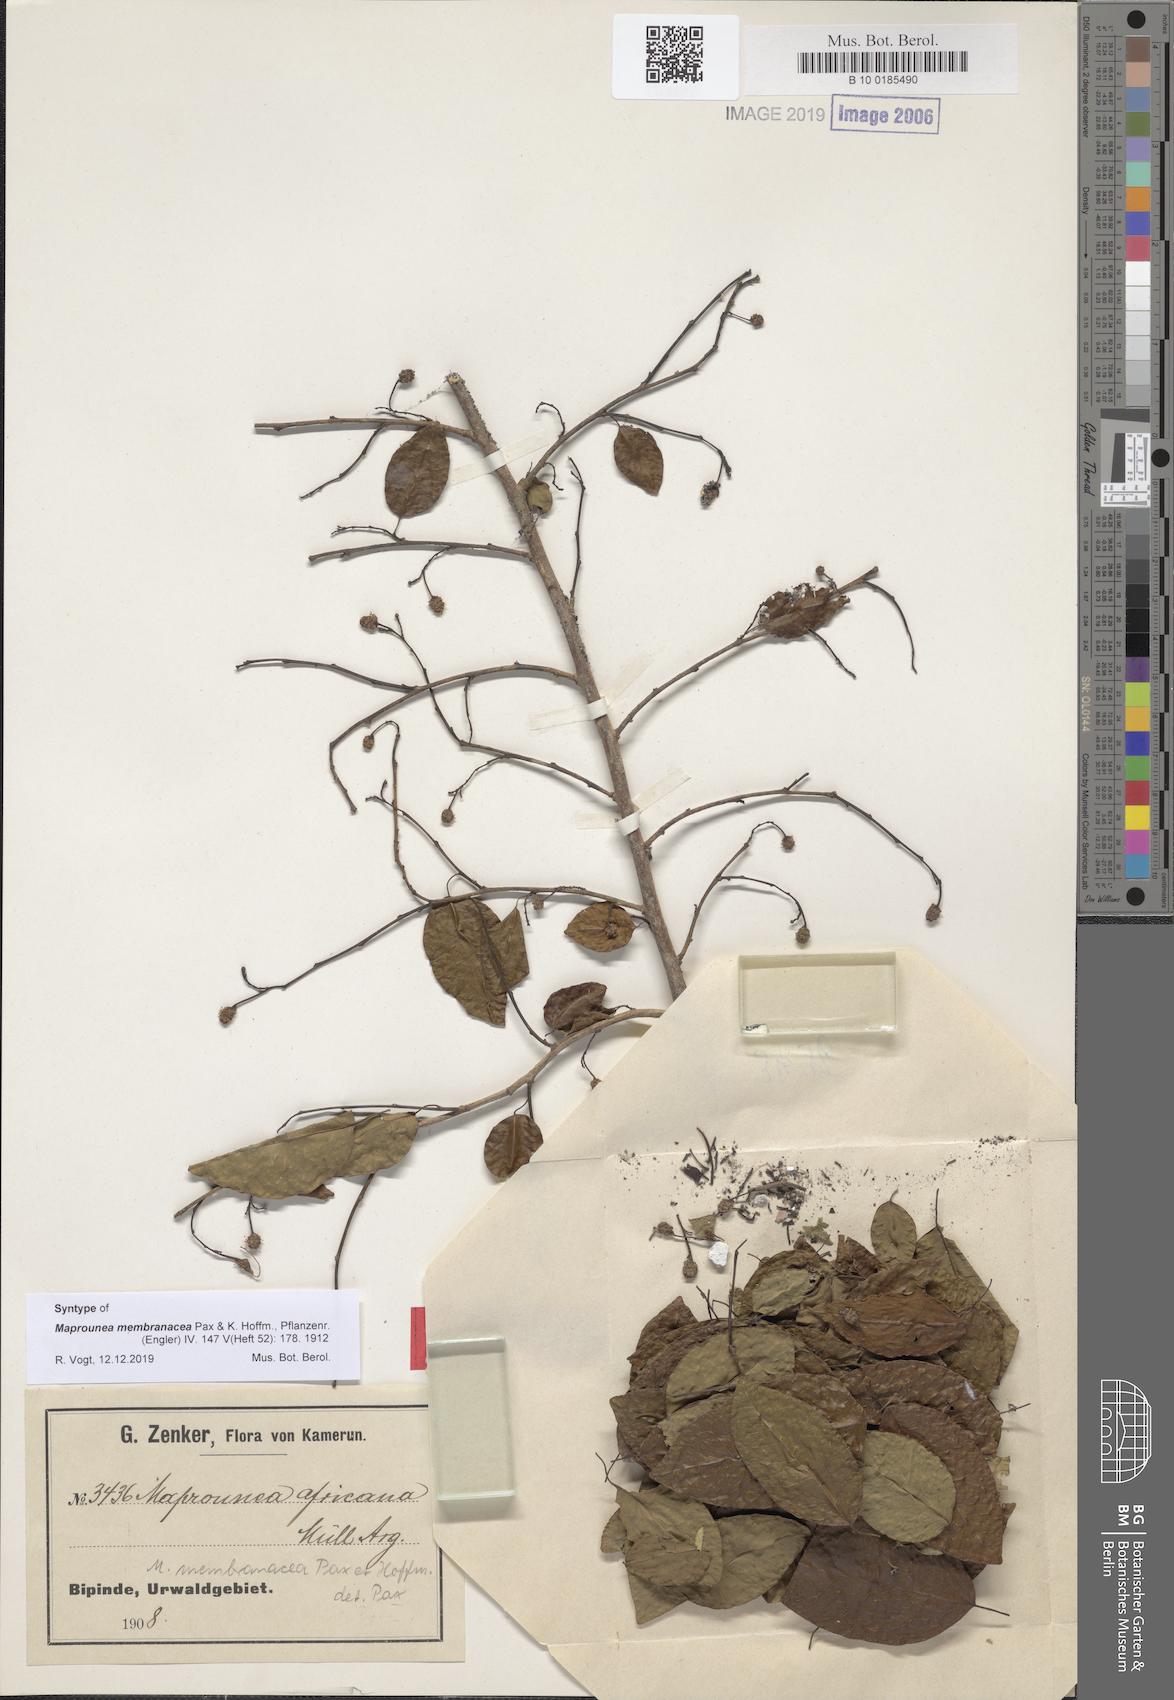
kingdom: Plantae
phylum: Tracheophyta
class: Magnoliopsida
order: Malpighiales
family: Euphorbiaceae
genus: Maprounea
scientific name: Maprounea membranacea
